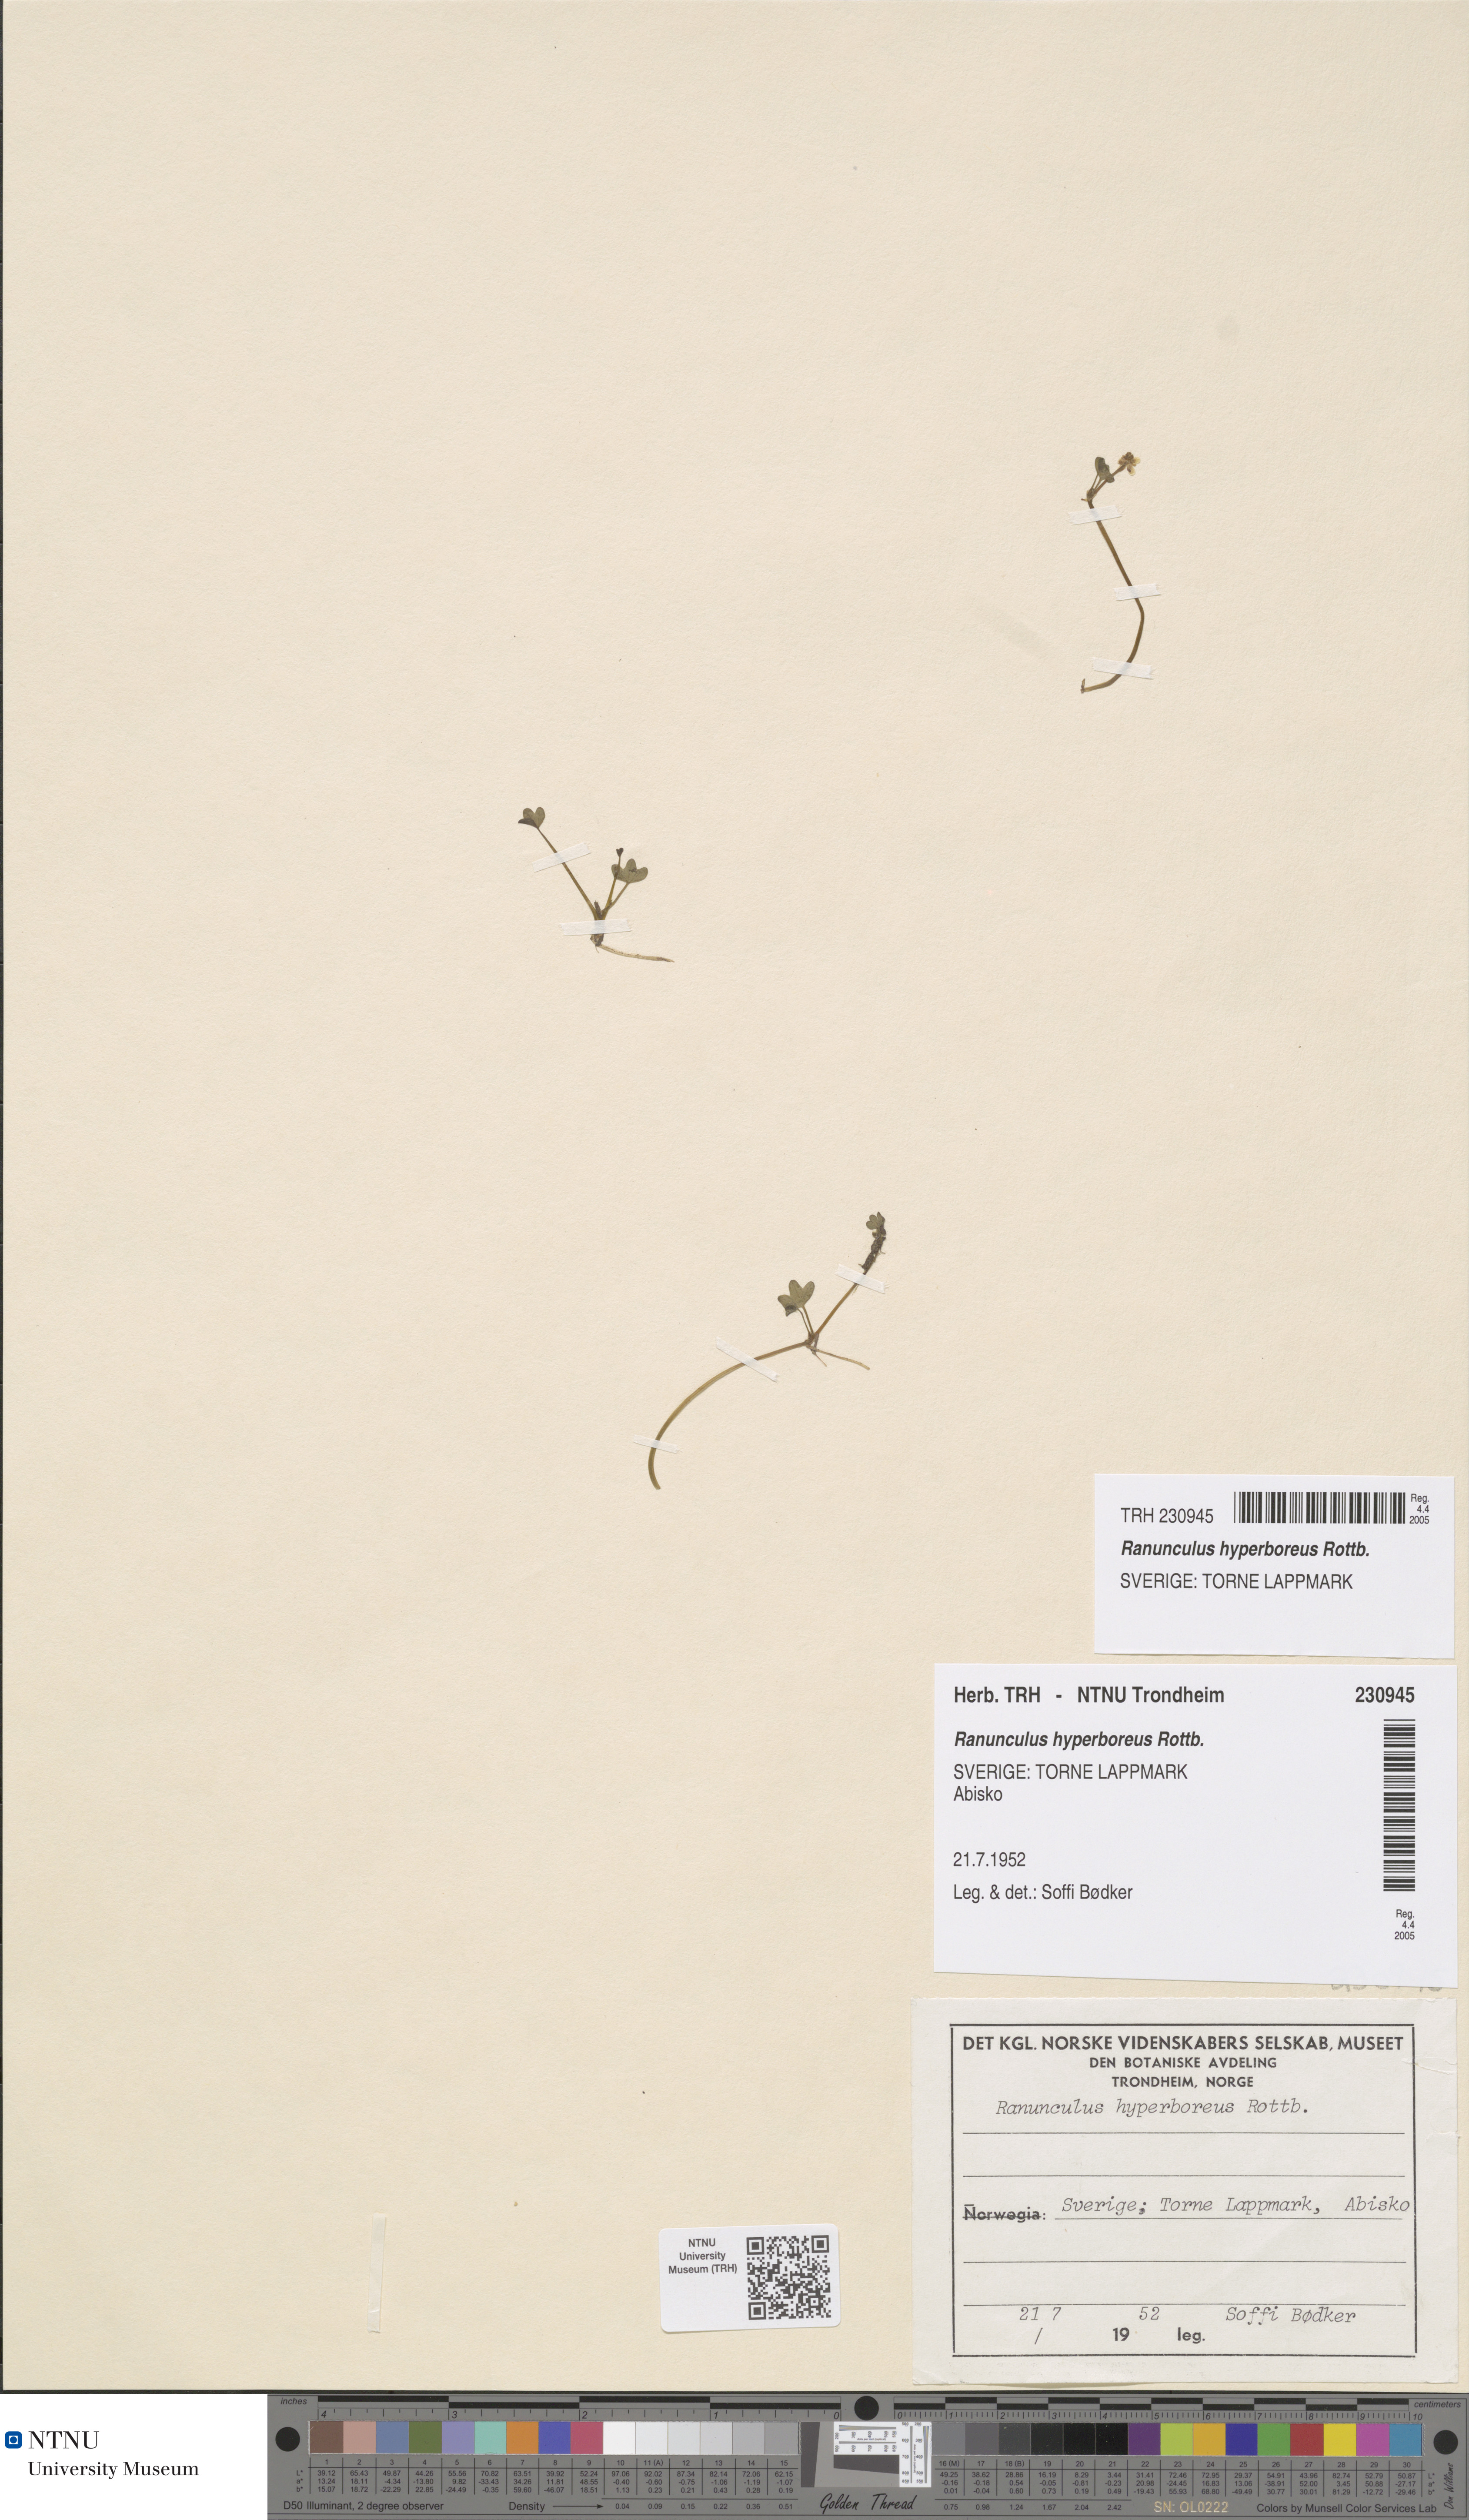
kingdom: Plantae
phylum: Tracheophyta
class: Magnoliopsida
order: Ranunculales
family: Ranunculaceae
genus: Ranunculus
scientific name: Ranunculus hyperboreus
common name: Arctic buttercup
